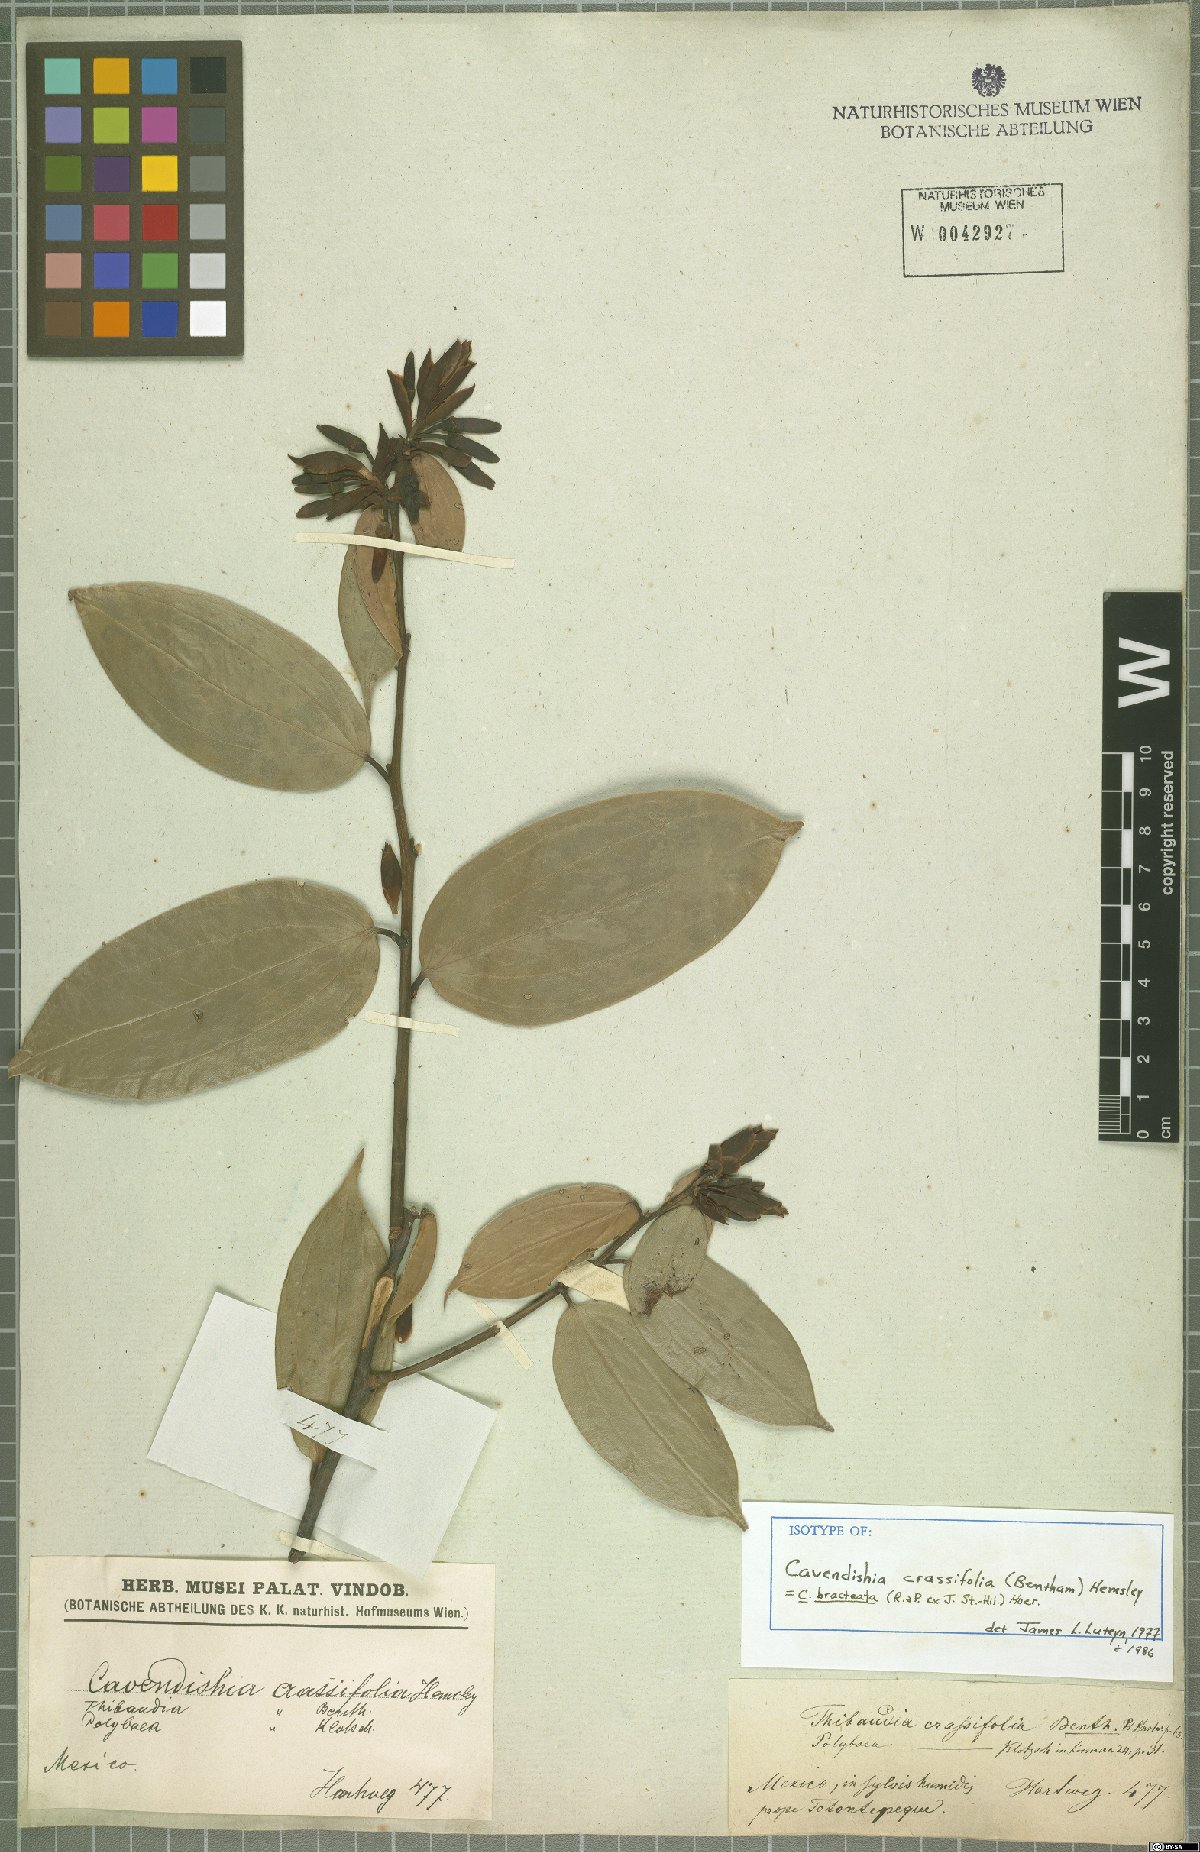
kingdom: Plantae
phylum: Tracheophyta
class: Magnoliopsida
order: Ericales
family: Ericaceae
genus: Cavendishia
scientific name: Cavendishia bracteata
